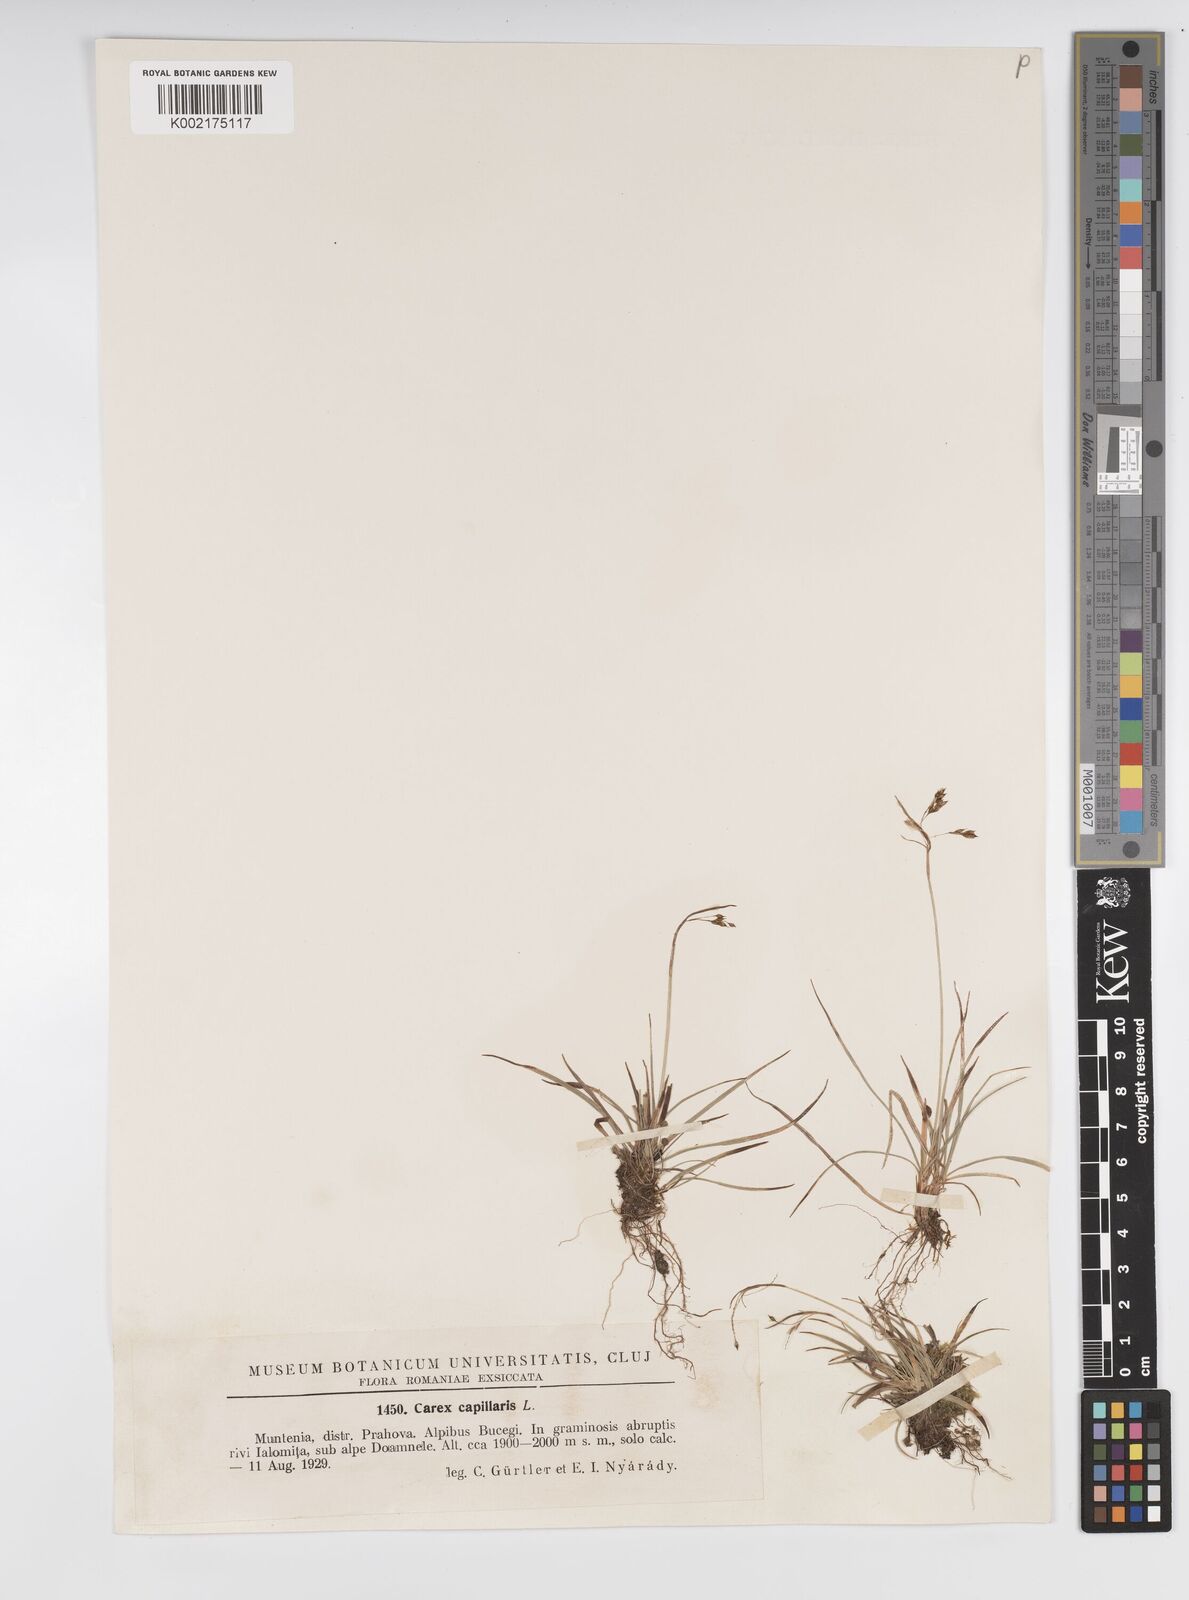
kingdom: Plantae
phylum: Tracheophyta
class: Liliopsida
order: Poales
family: Cyperaceae
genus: Carex
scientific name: Carex capillaris
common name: Hair sedge
